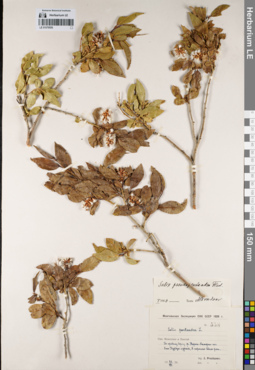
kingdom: Plantae
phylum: Tracheophyta
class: Magnoliopsida
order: Malpighiales
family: Salicaceae
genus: Salix
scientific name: Salix pseudopentandra
